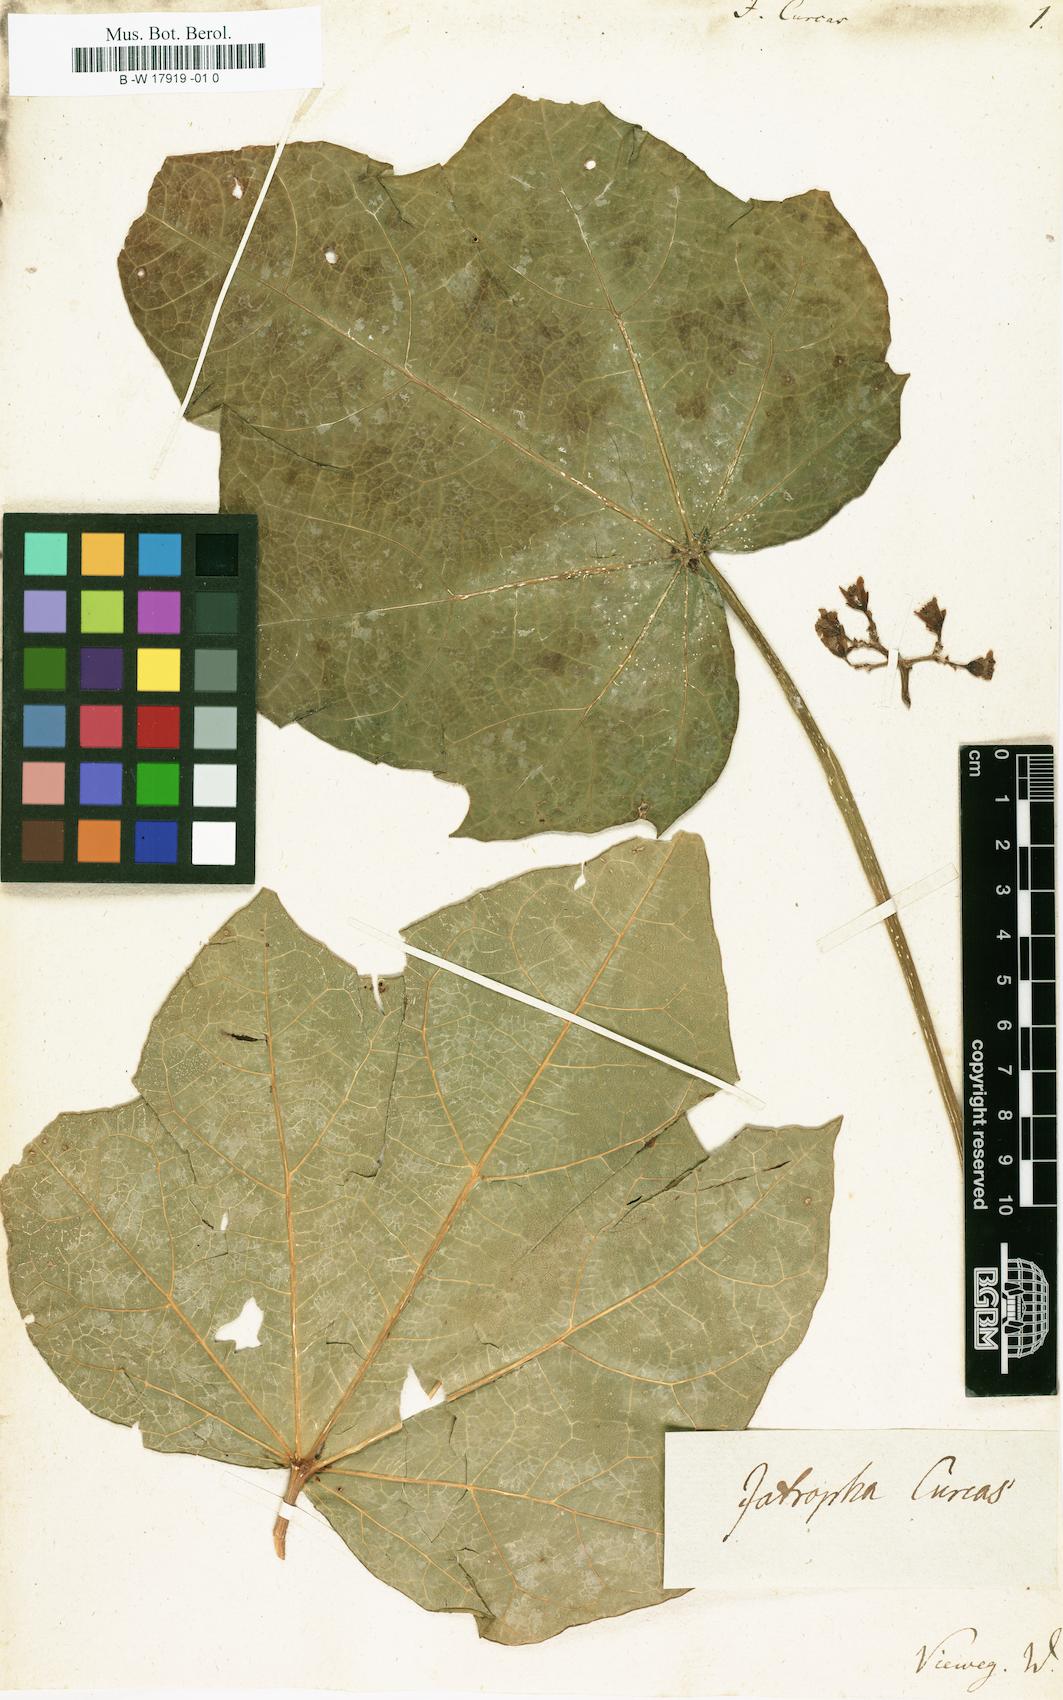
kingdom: Plantae
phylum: Tracheophyta
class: Magnoliopsida
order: Malpighiales
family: Euphorbiaceae
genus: Jatropha
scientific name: Jatropha curcas
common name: Barbados nut
